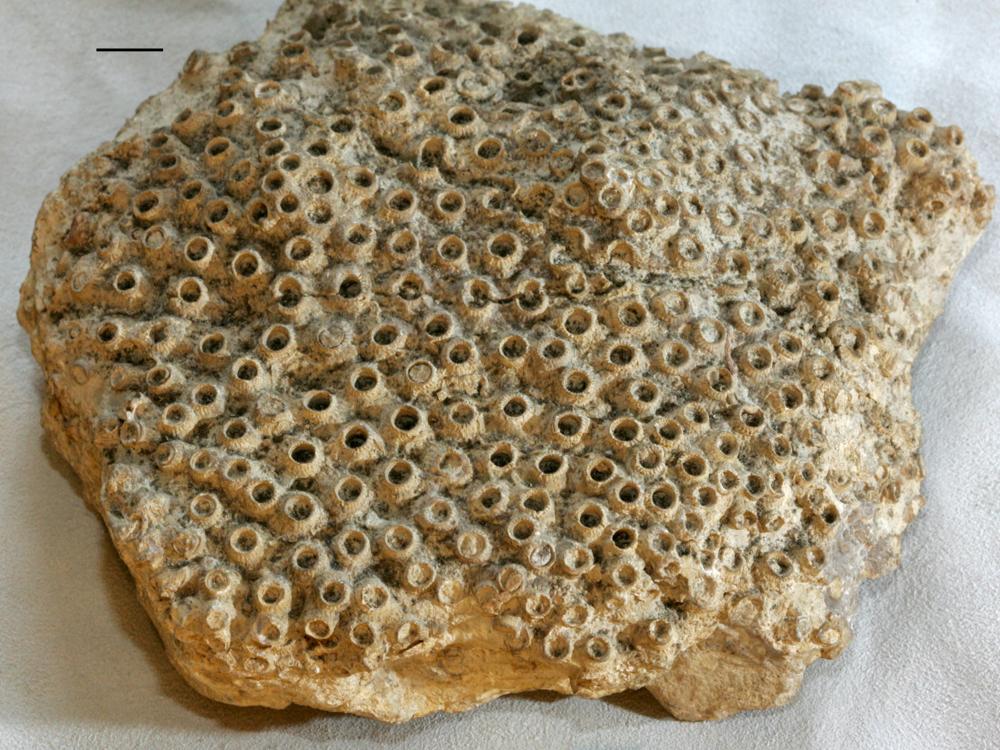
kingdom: Animalia
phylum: Cnidaria
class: Anthozoa
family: Syringophyllidae
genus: Sarcinula
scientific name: Sarcinula organum
